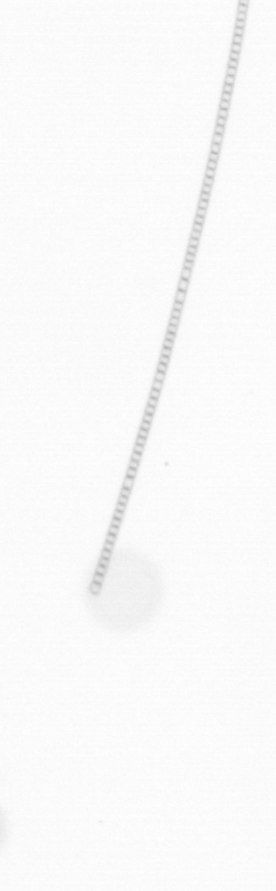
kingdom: Chromista
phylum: Ochrophyta
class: Bacillariophyceae
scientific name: Bacillariophyceae
